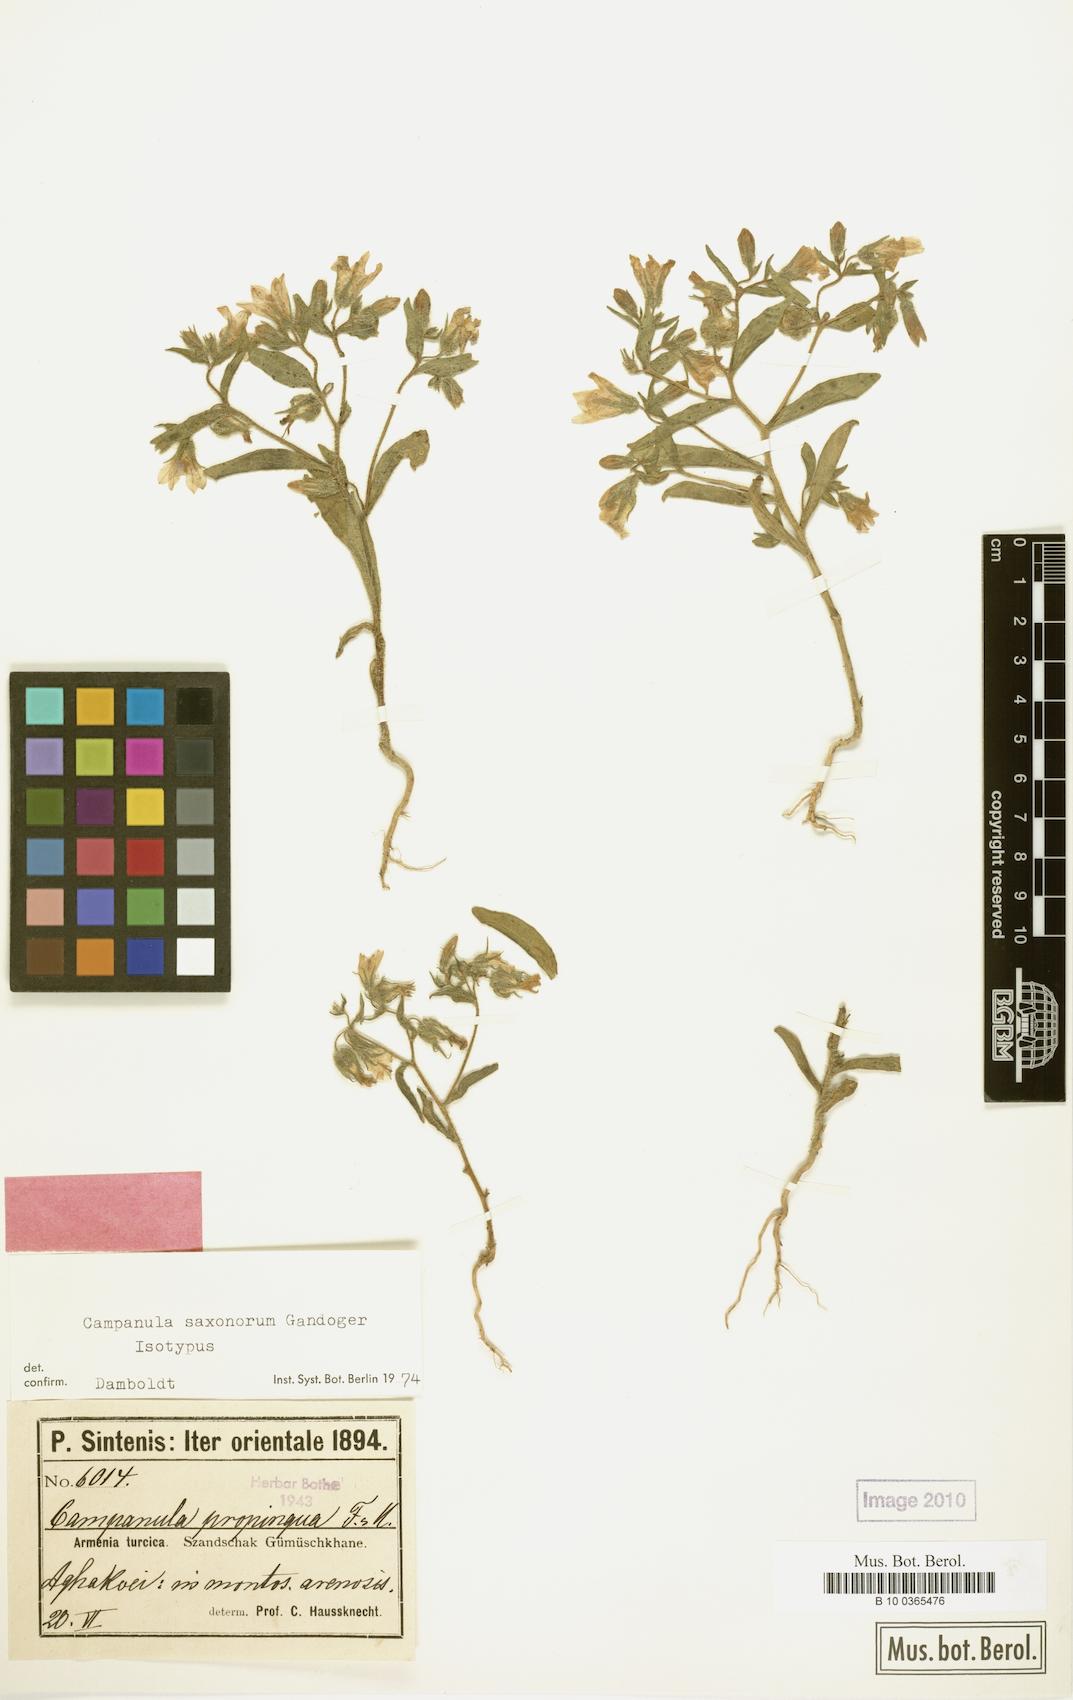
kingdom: Plantae
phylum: Tracheophyta
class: Magnoliopsida
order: Asterales
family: Campanulaceae
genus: Campanula
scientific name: Campanula saxonorum
